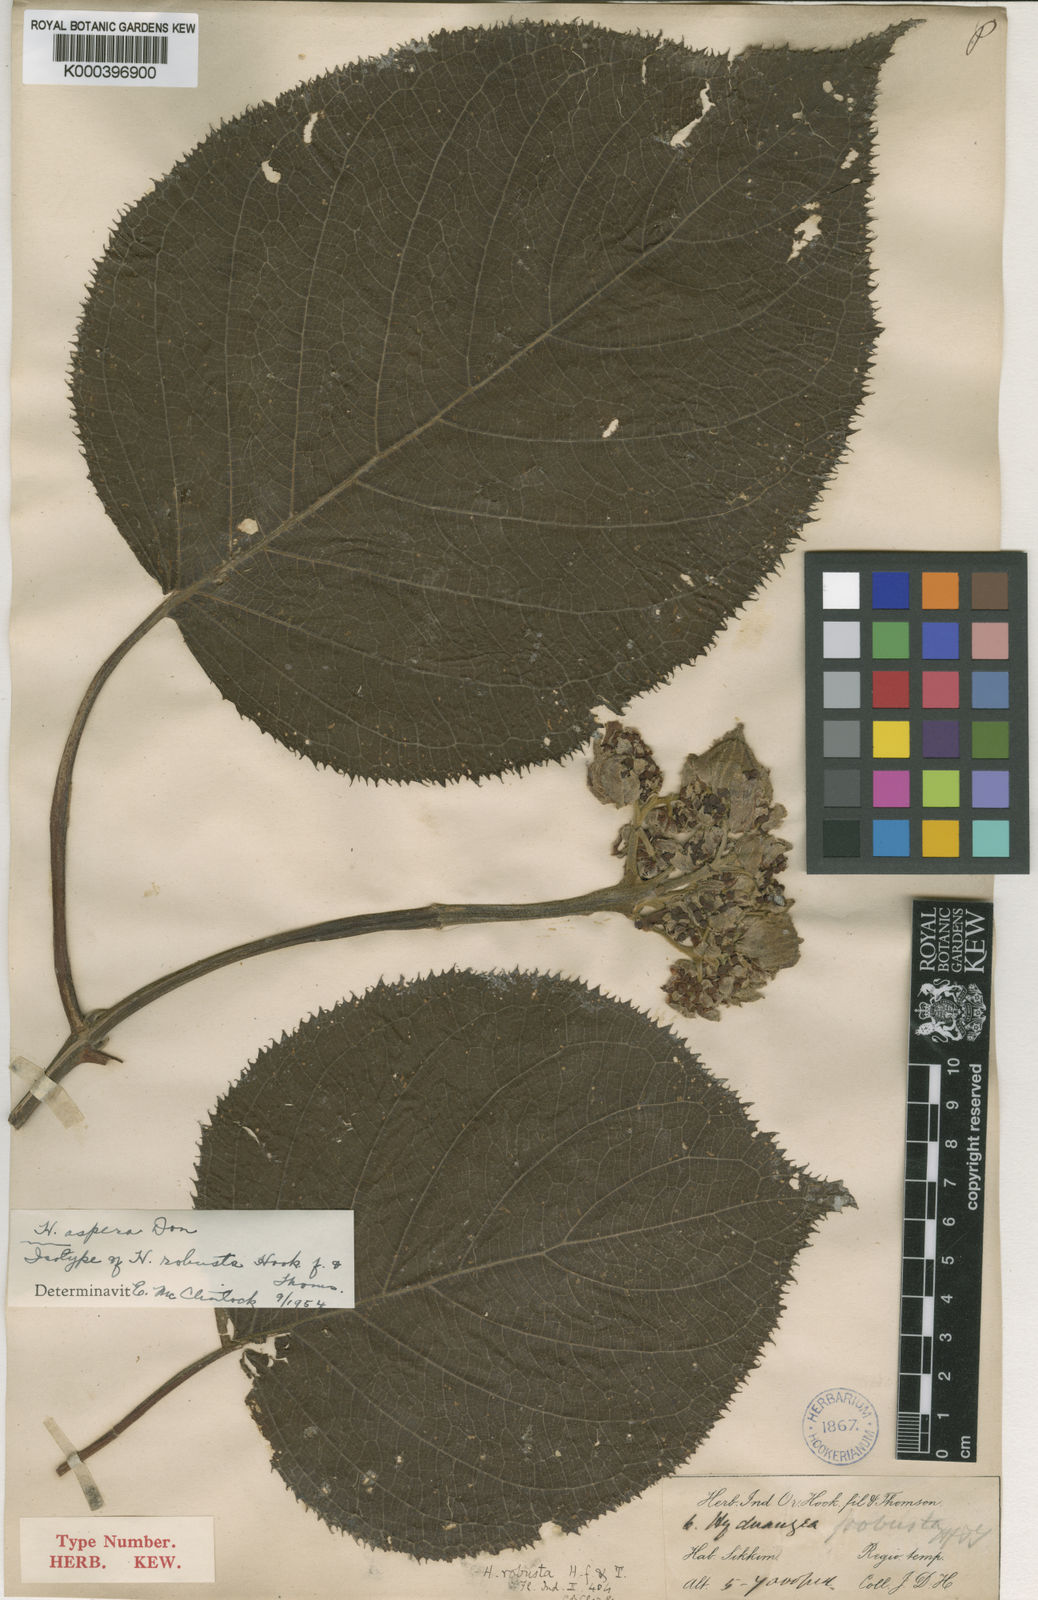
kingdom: Plantae
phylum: Tracheophyta
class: Magnoliopsida
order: Cornales
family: Hydrangeaceae
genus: Hydrangea
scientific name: Hydrangea aspera
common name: Rough-leaf hydrangea
